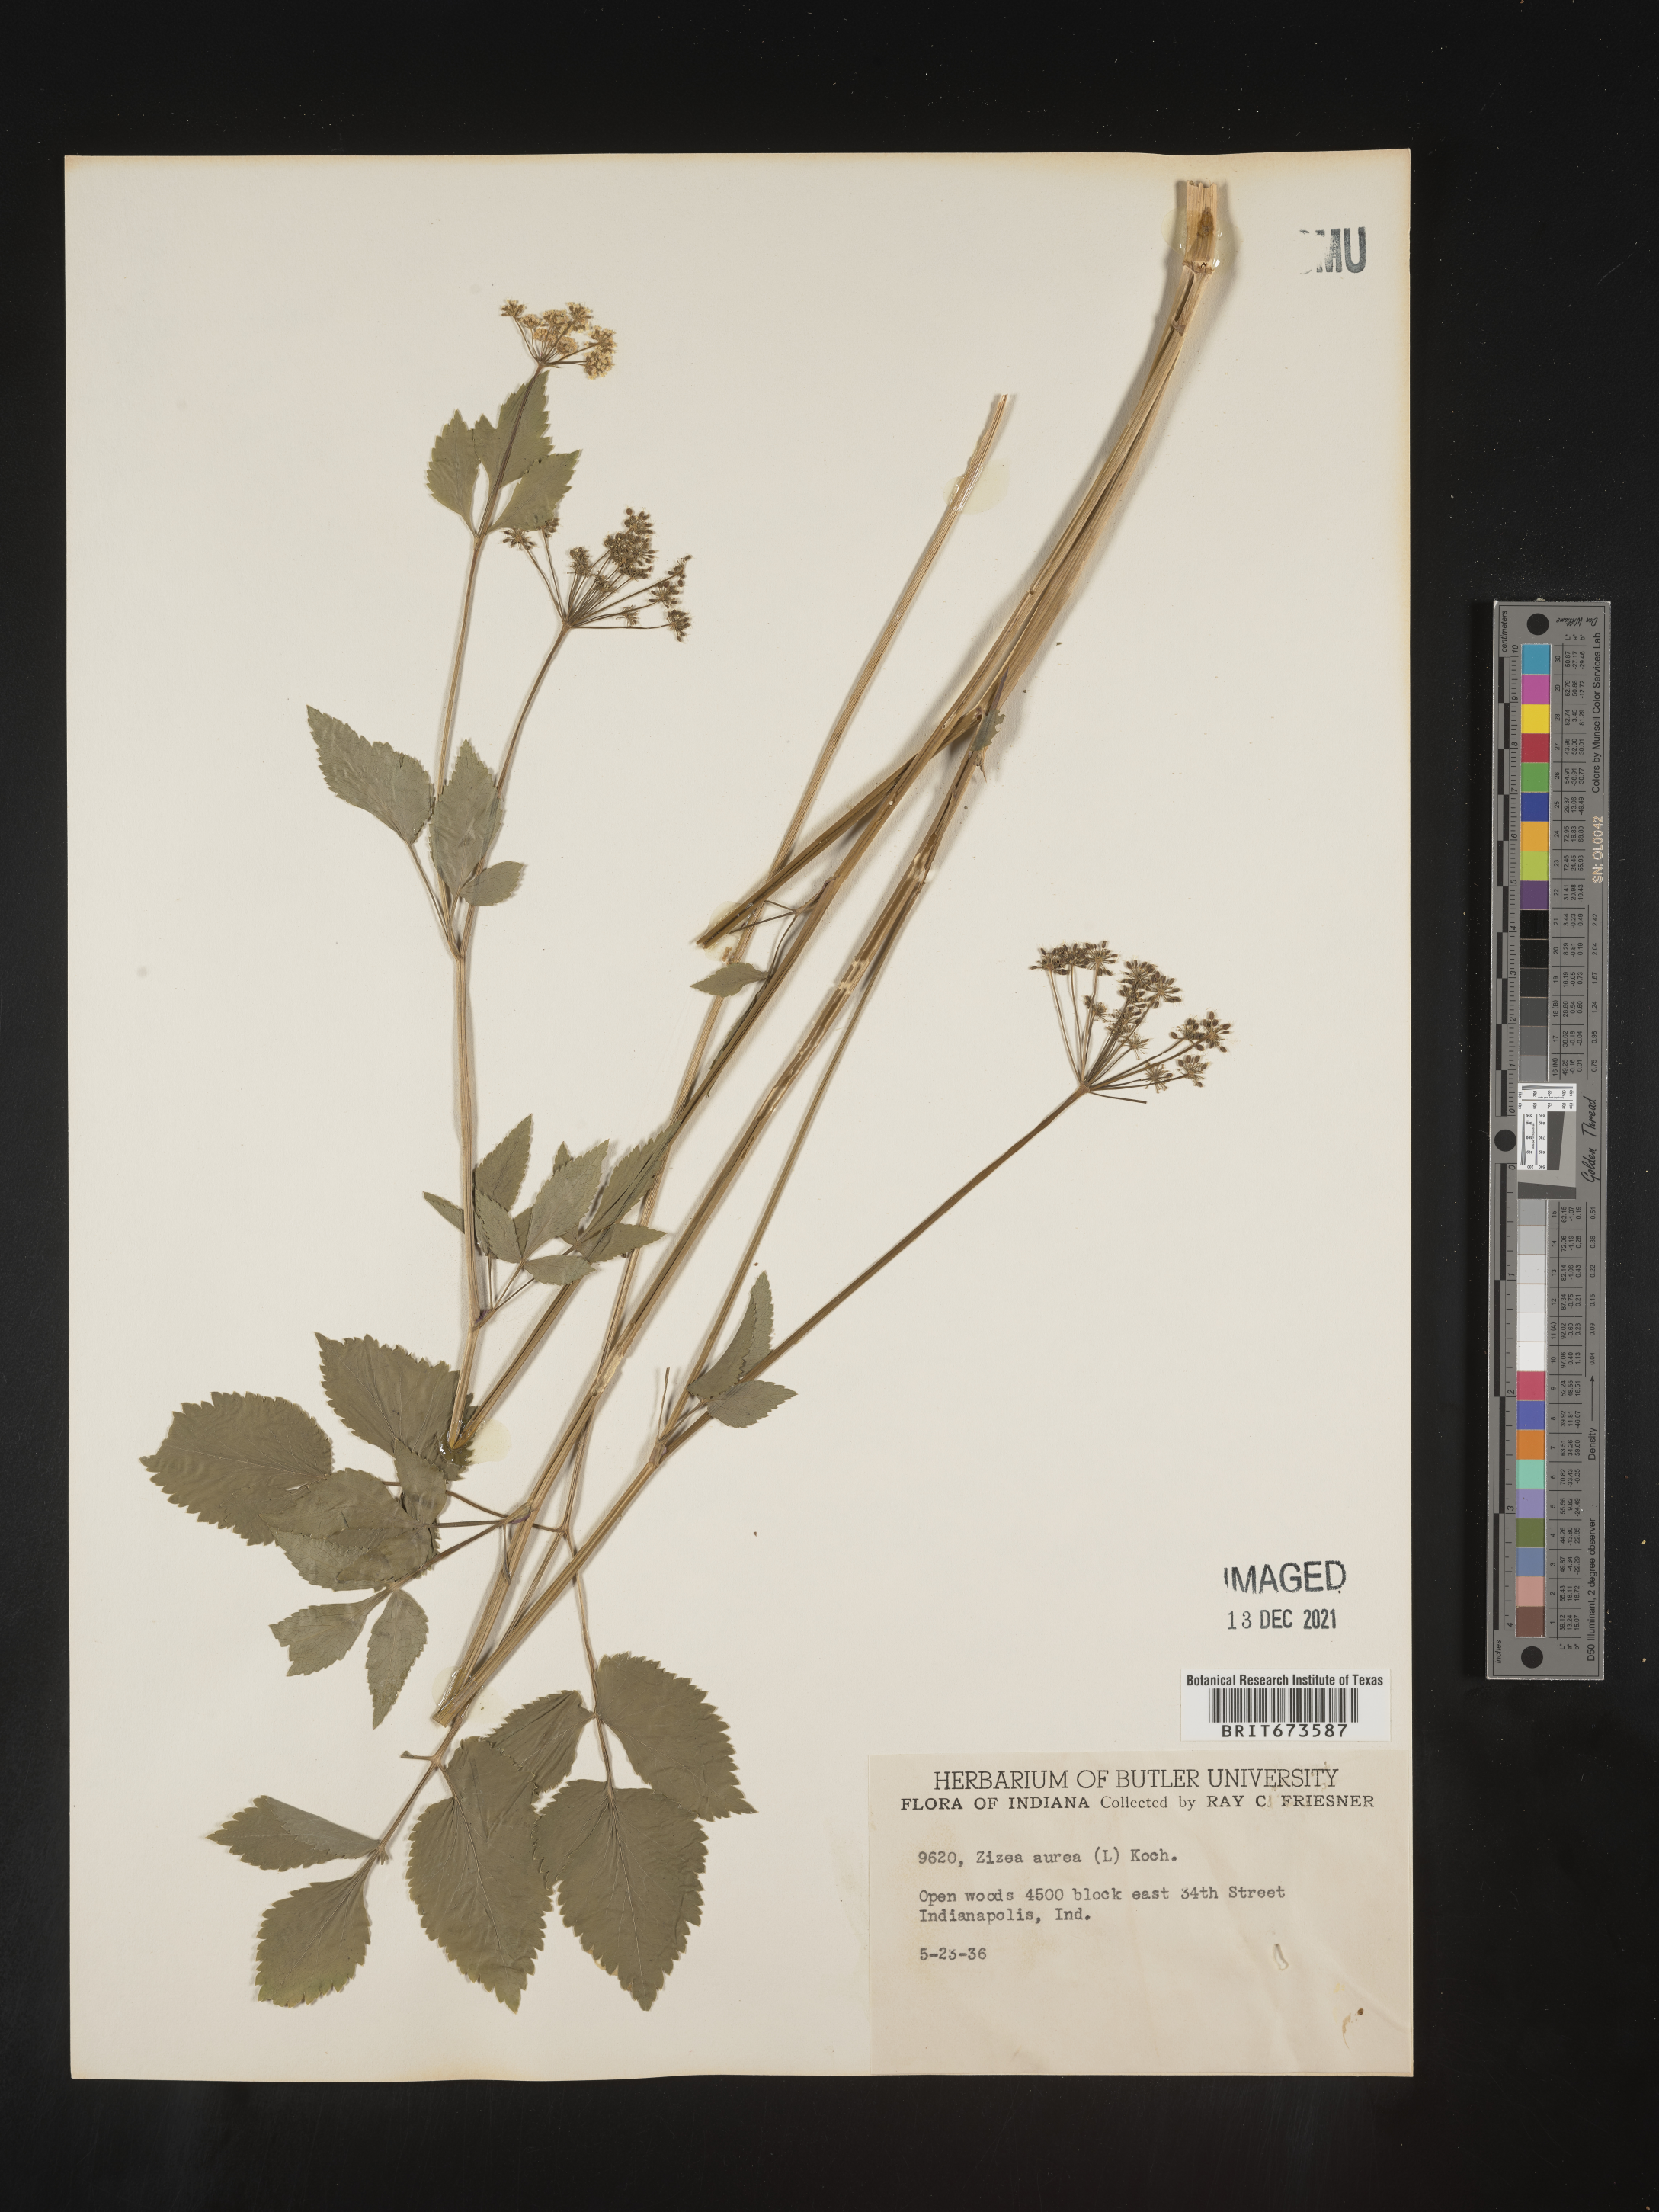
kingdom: Plantae
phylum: Tracheophyta
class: Magnoliopsida
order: Apiales
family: Apiaceae
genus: Zizia
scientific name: Zizia aurea
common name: Golden alexanders
